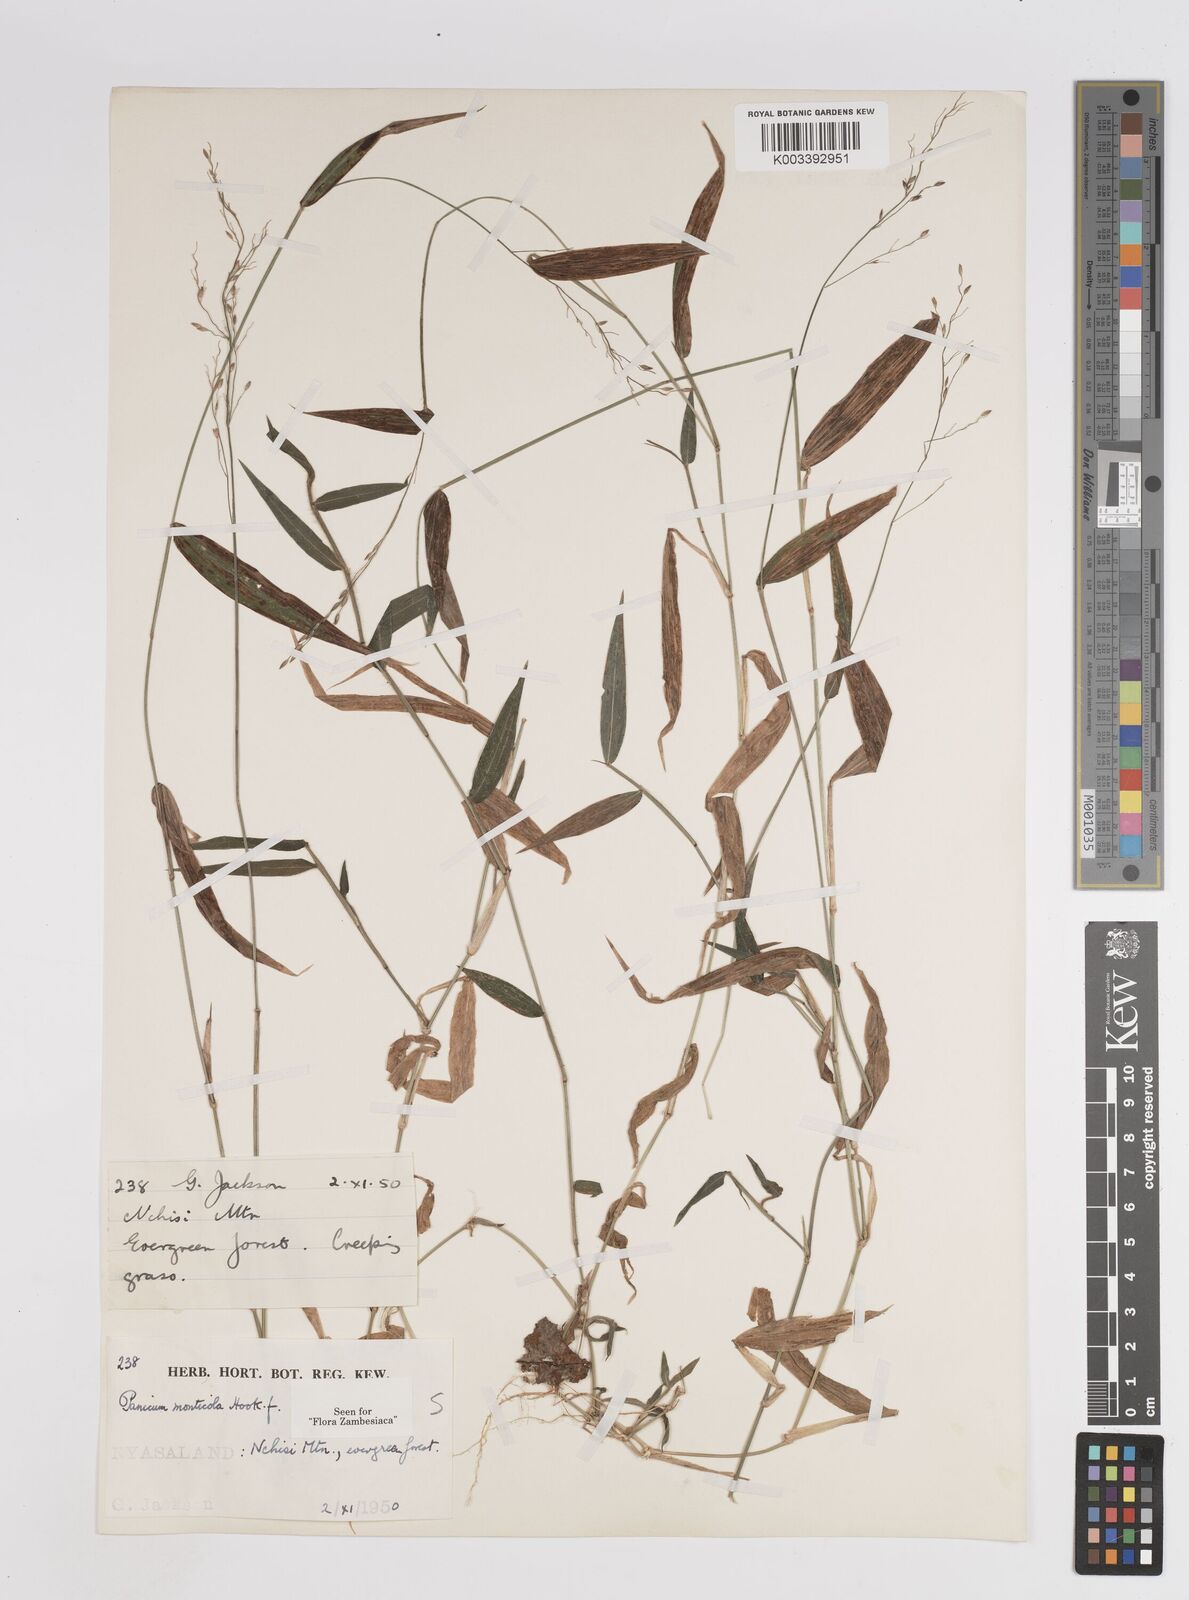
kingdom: Plantae
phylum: Tracheophyta
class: Liliopsida
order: Poales
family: Poaceae
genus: Panicum
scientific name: Panicum monticola
